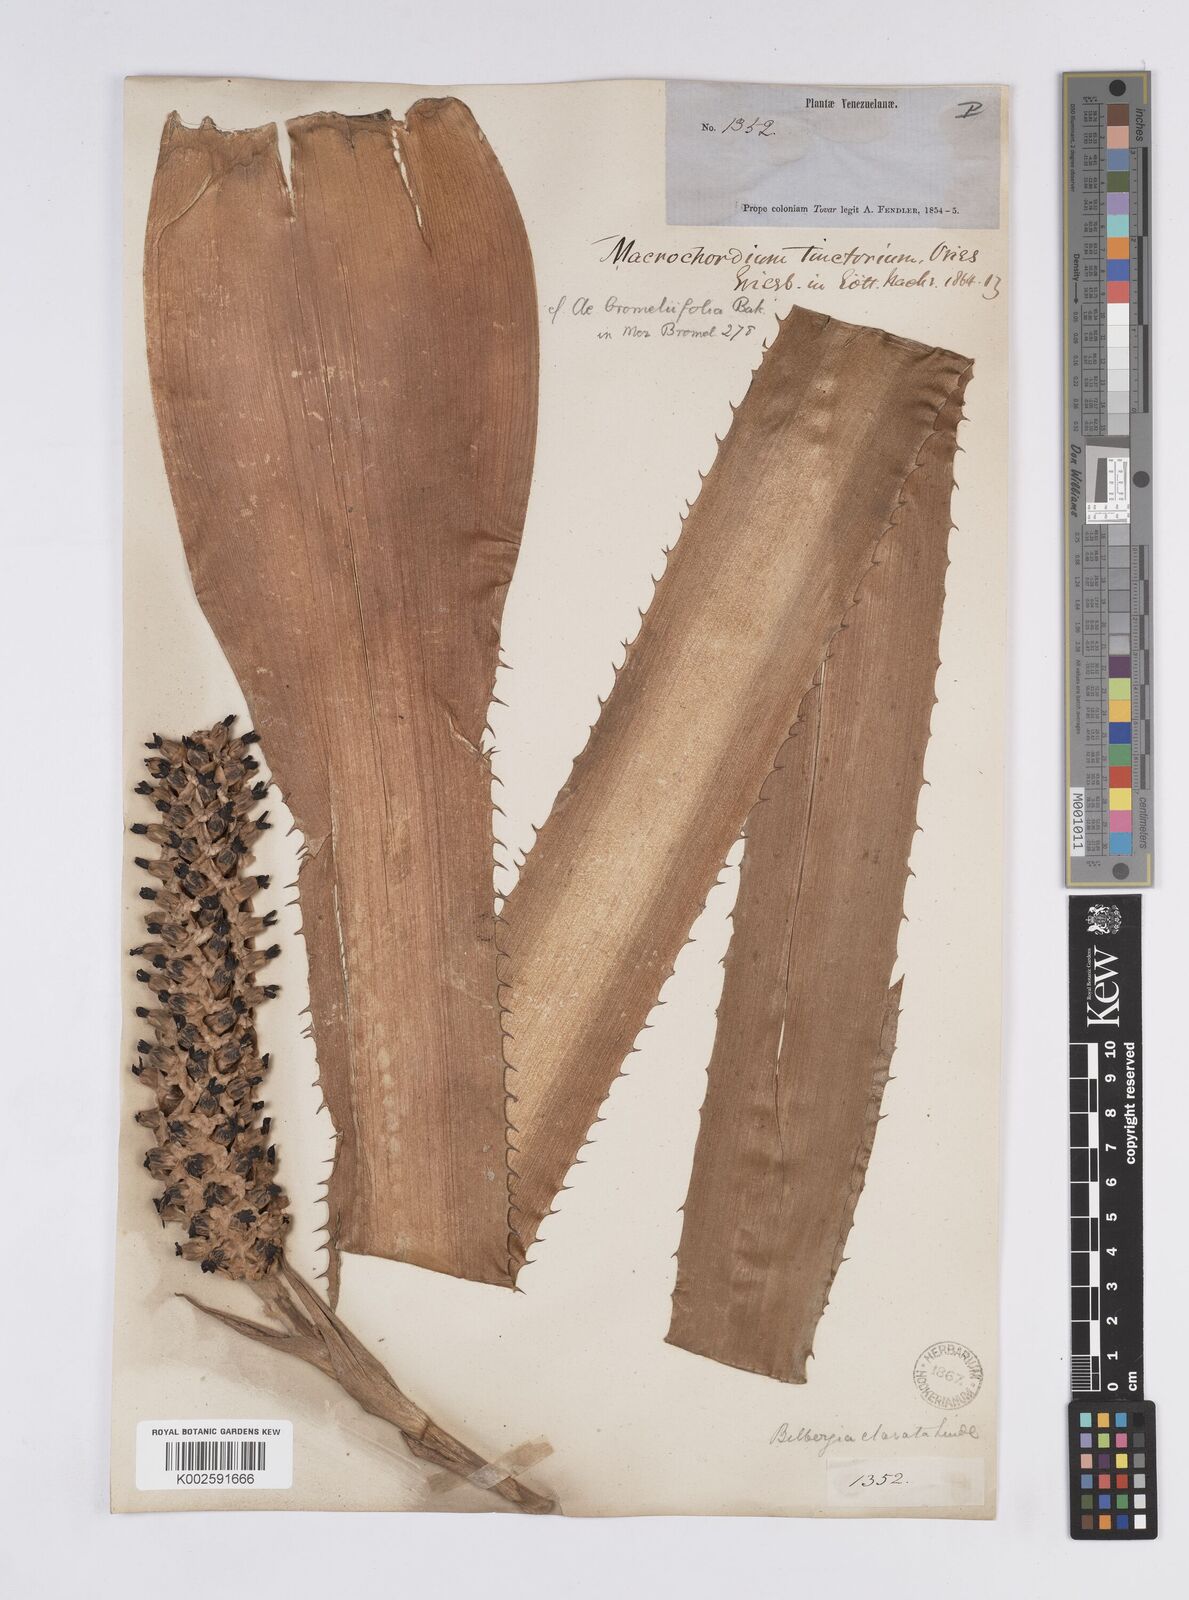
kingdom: Plantae
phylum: Tracheophyta
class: Liliopsida
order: Poales
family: Bromeliaceae
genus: Aechmea
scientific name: Aechmea bromeliifolia
